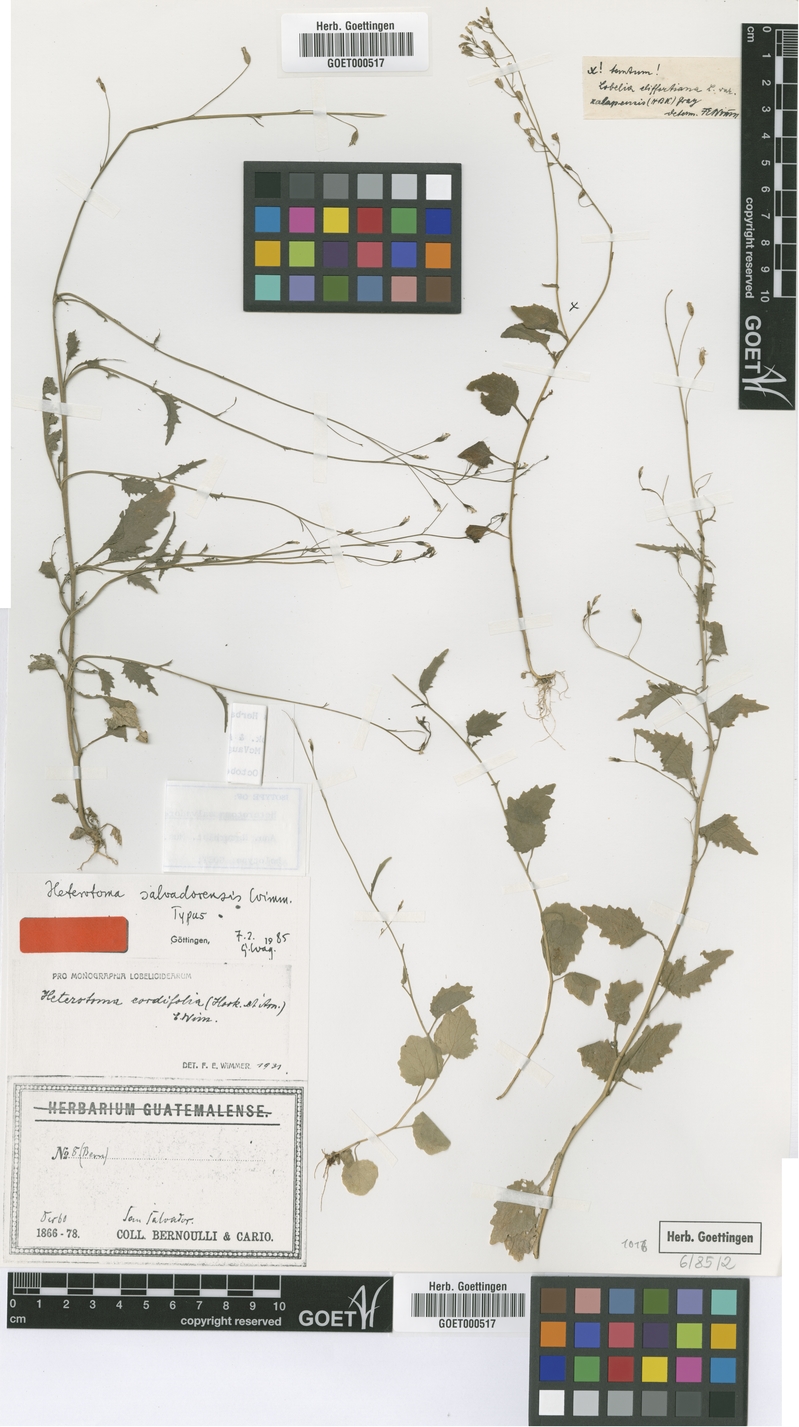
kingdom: Plantae
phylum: Tracheophyta
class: Magnoliopsida
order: Asterales
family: Campanulaceae
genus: Lobelia
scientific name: Lobelia cordifolia
